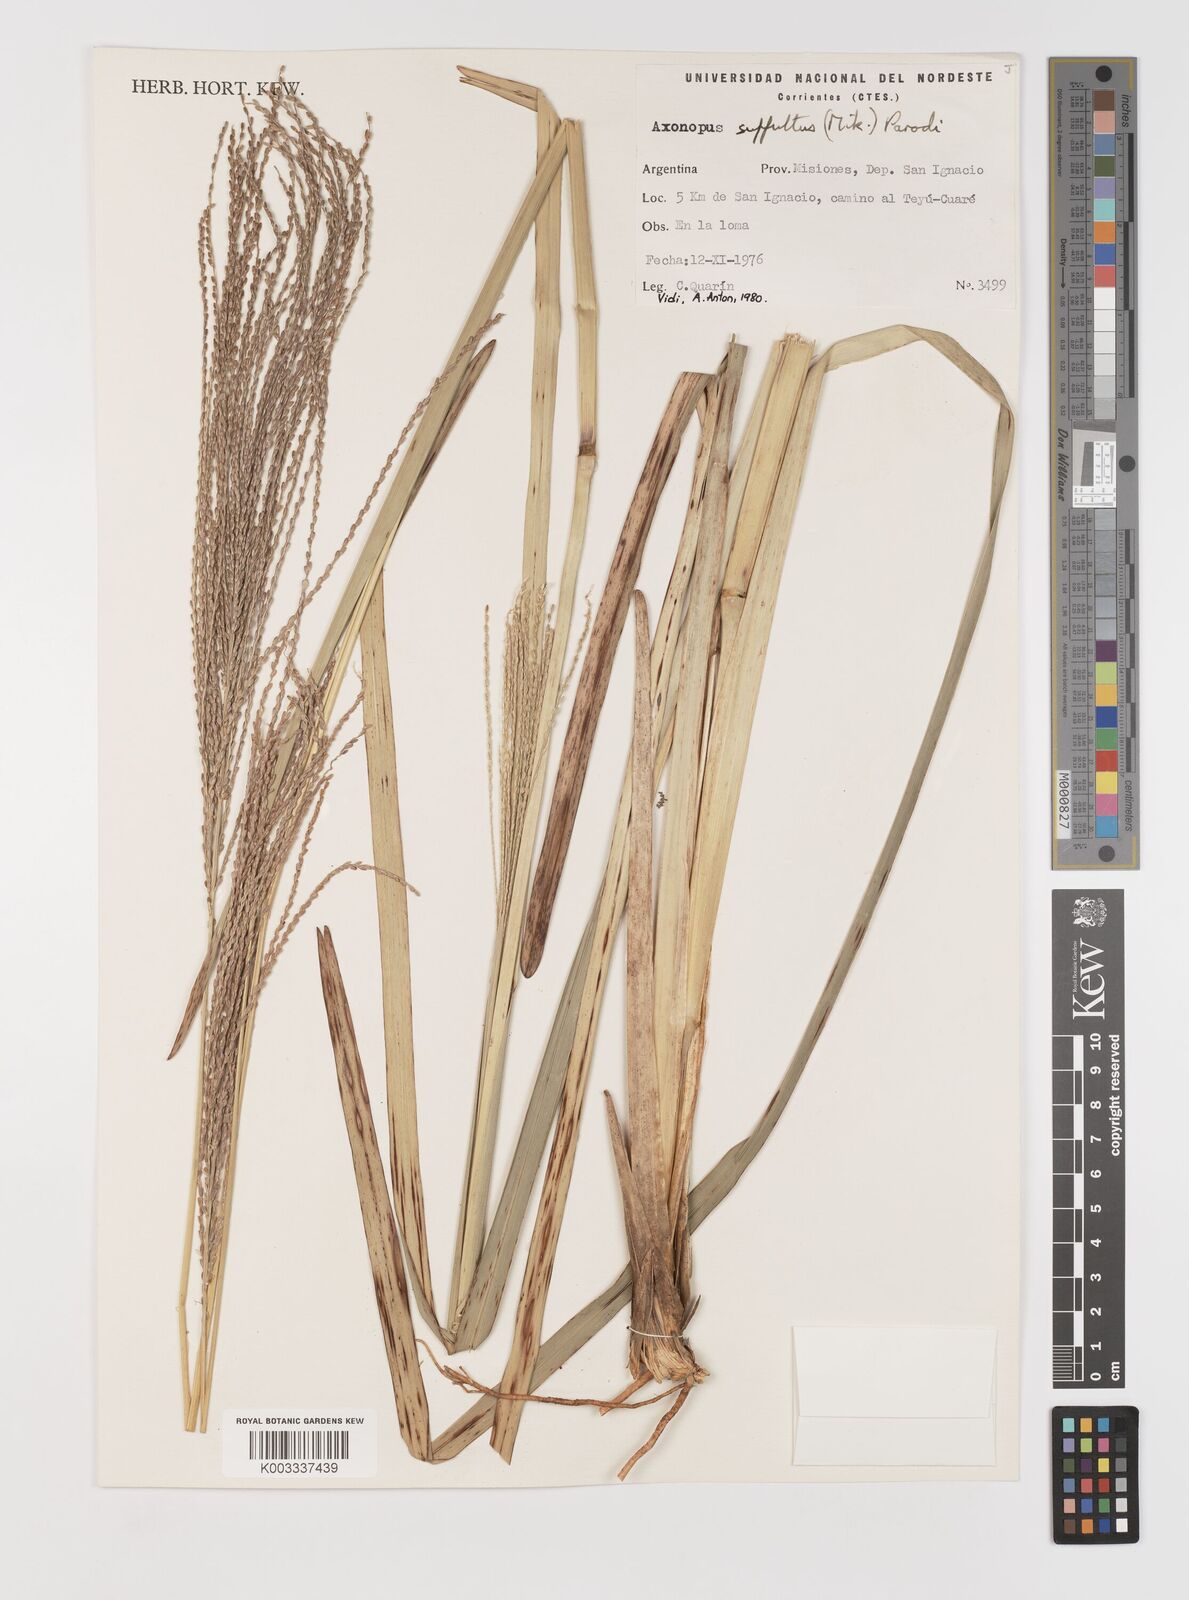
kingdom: Plantae
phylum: Tracheophyta
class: Liliopsida
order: Poales
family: Poaceae
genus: Axonopus
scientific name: Axonopus suffultus
